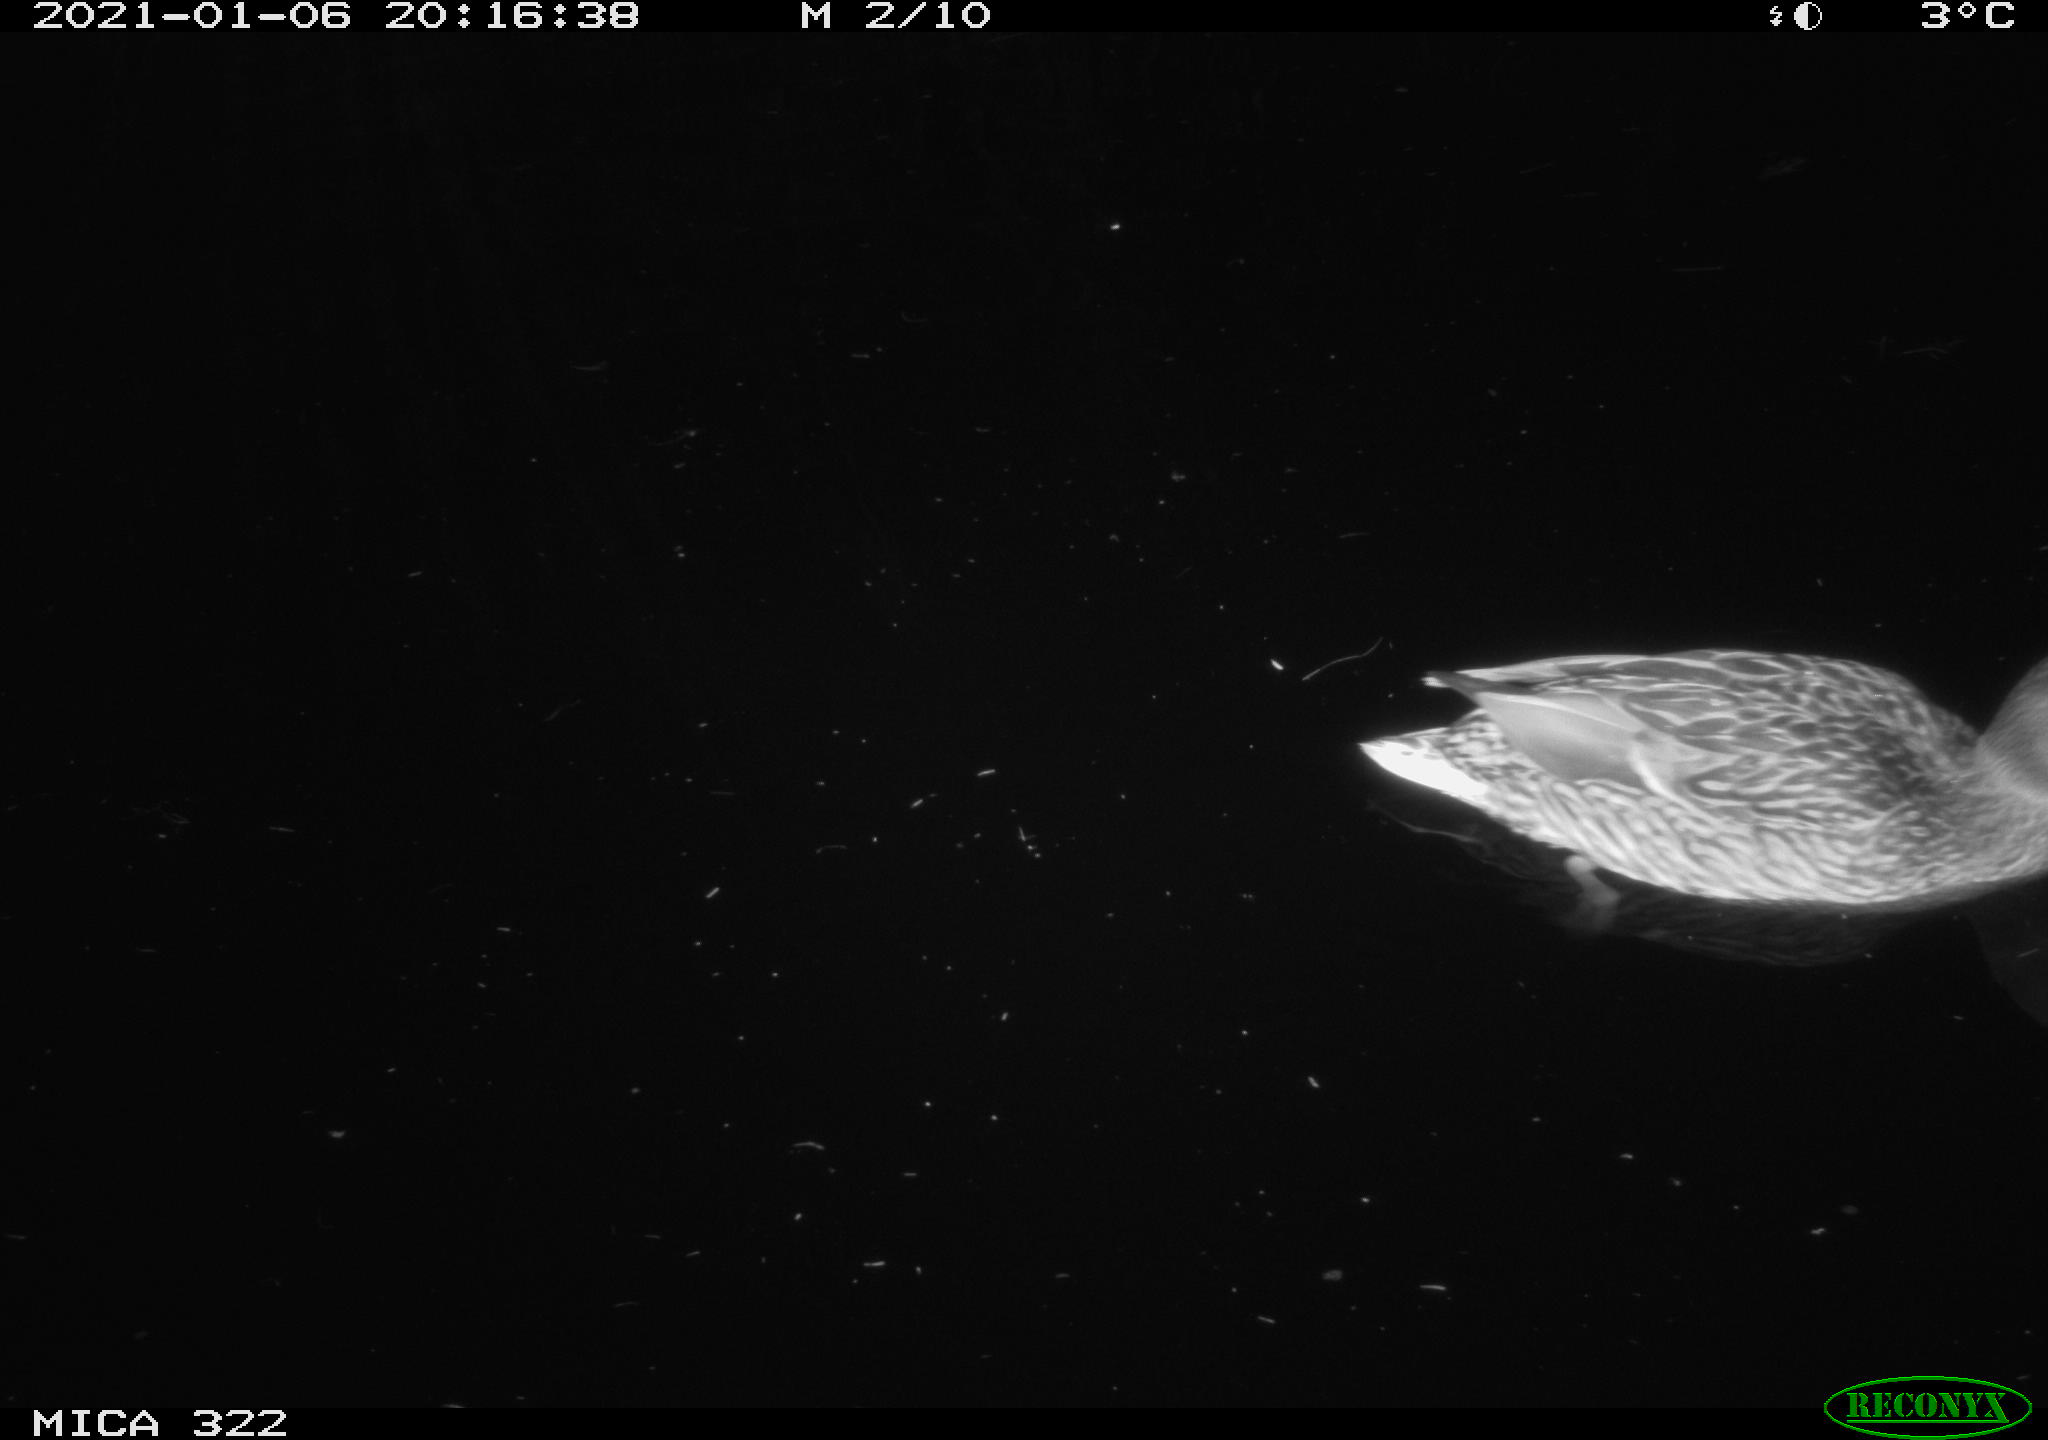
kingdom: Animalia
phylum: Chordata
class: Aves
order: Anseriformes
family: Anatidae
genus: Anas
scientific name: Anas platyrhynchos
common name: Mallard
